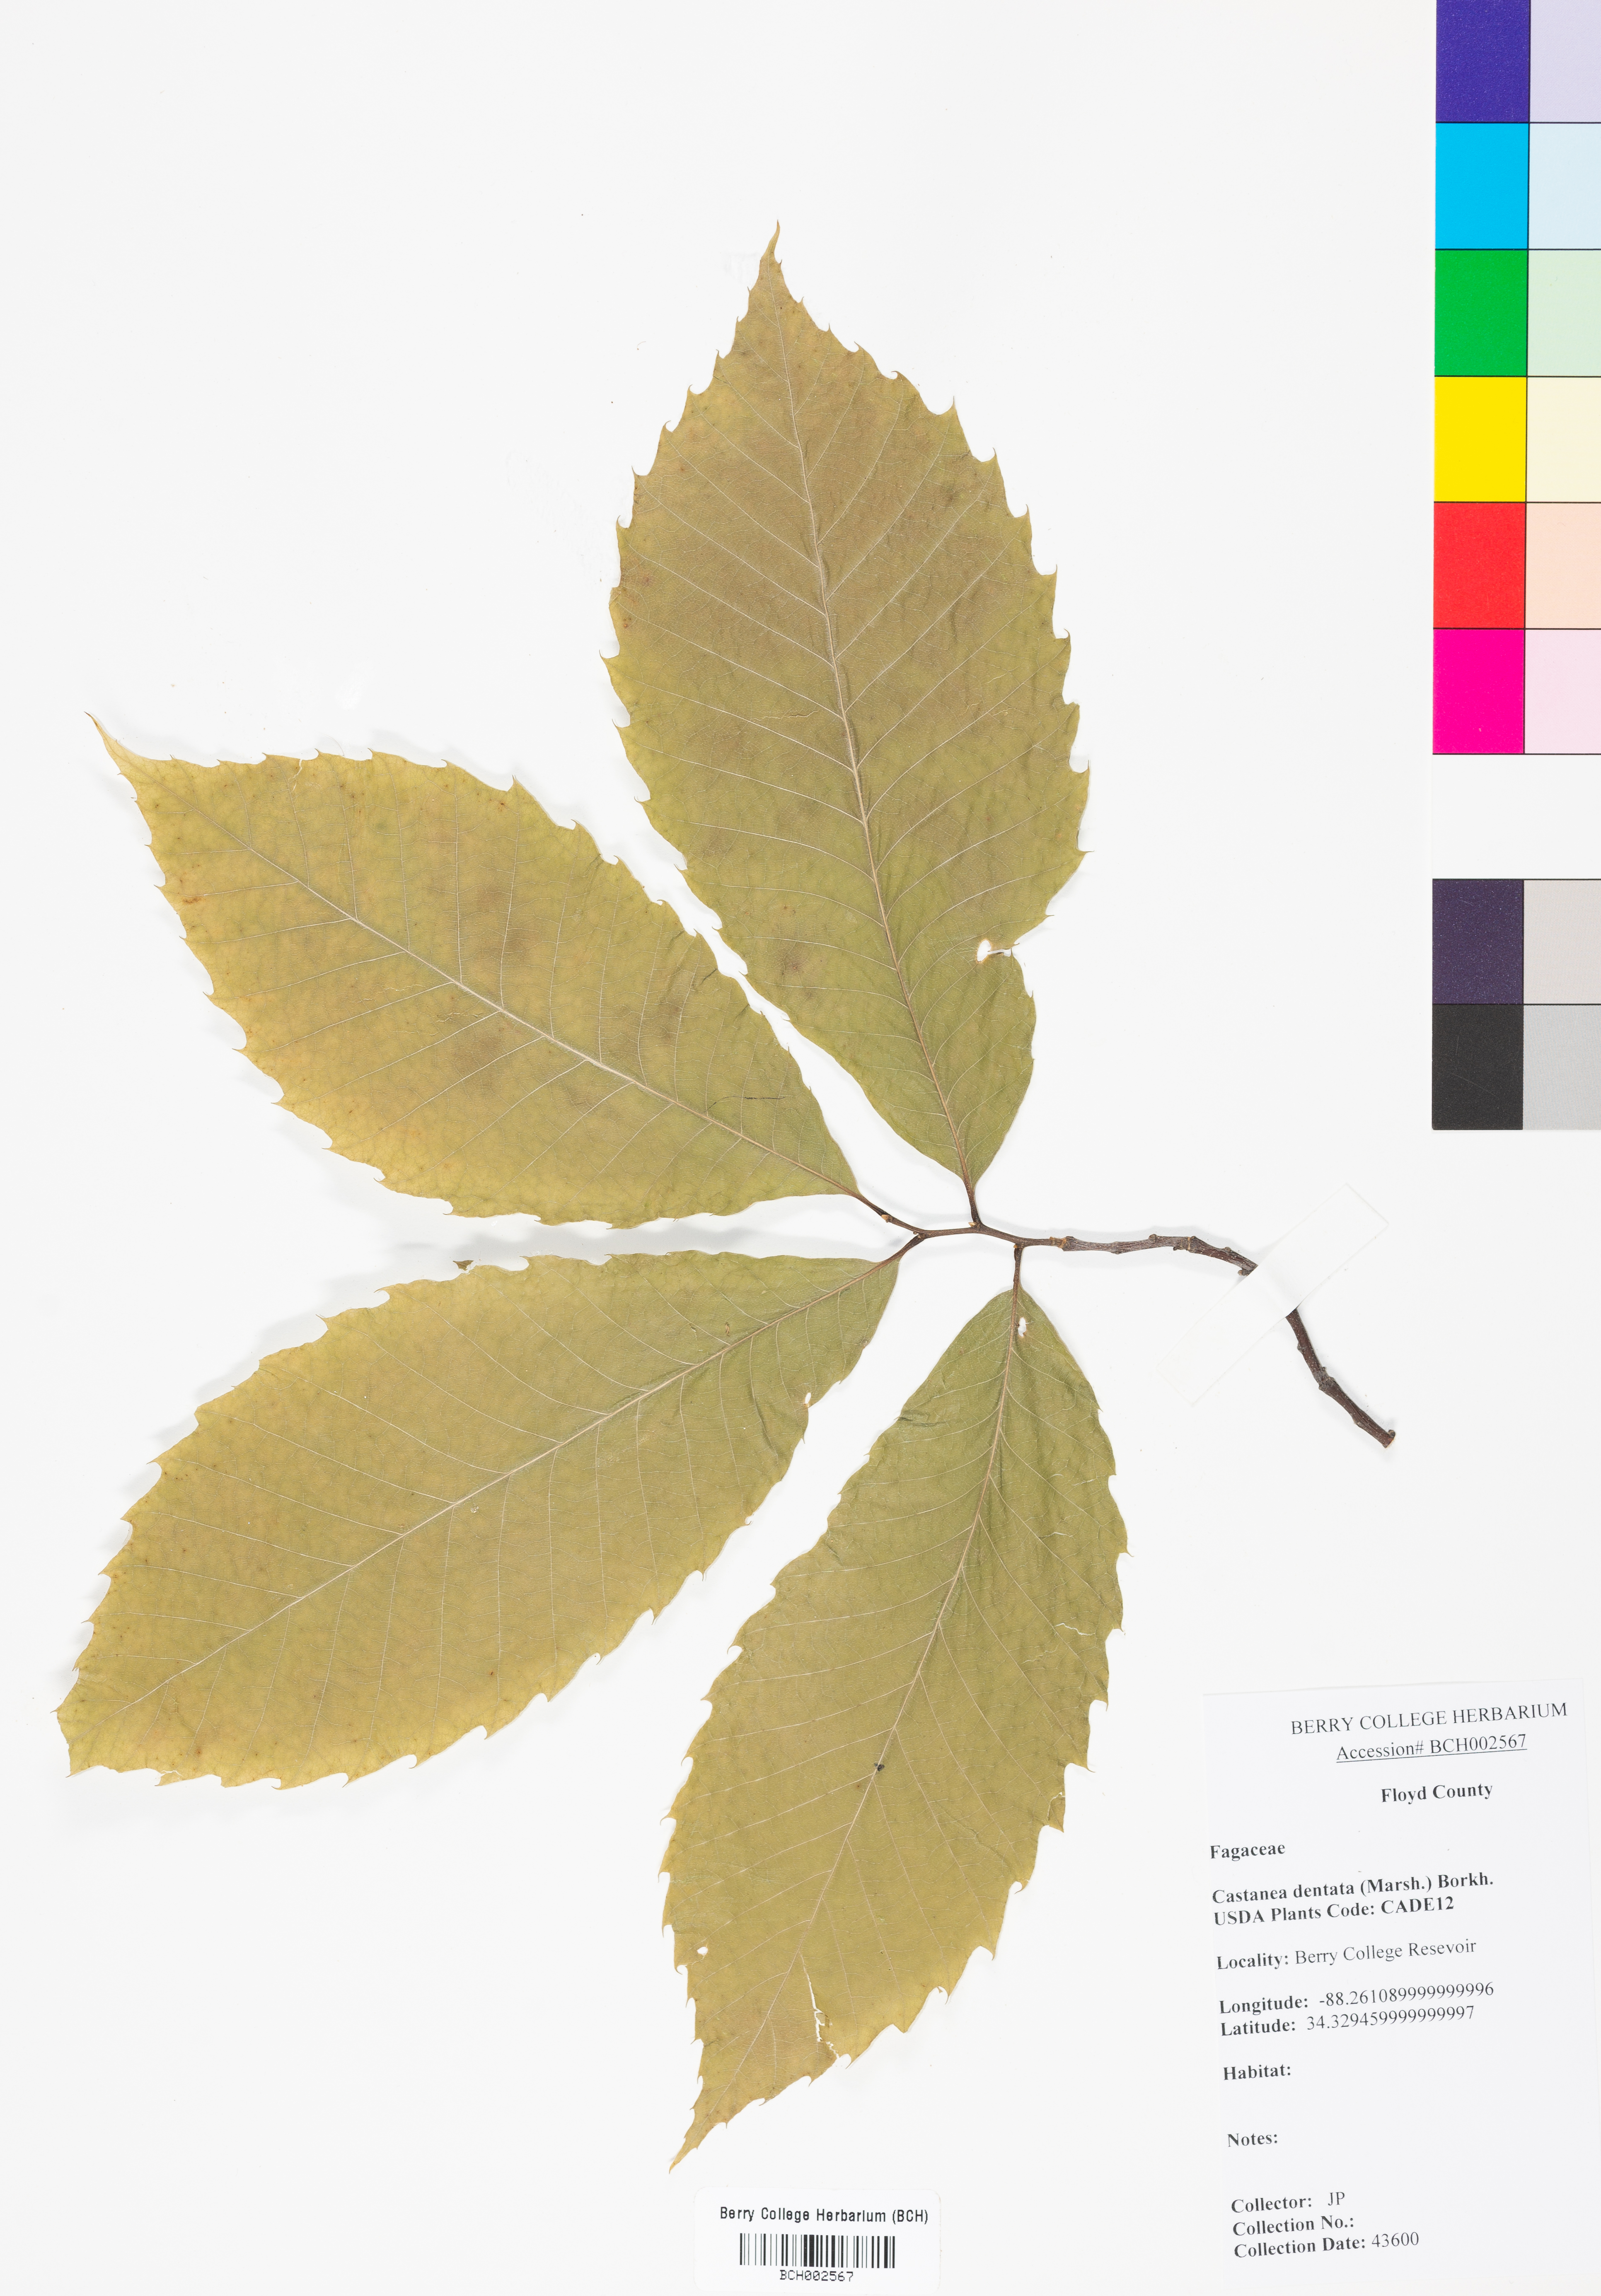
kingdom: Plantae
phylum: Tracheophyta
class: Magnoliopsida
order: Fagales
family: Fagaceae
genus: Castanea
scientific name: Castanea dentata
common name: American chestnut
